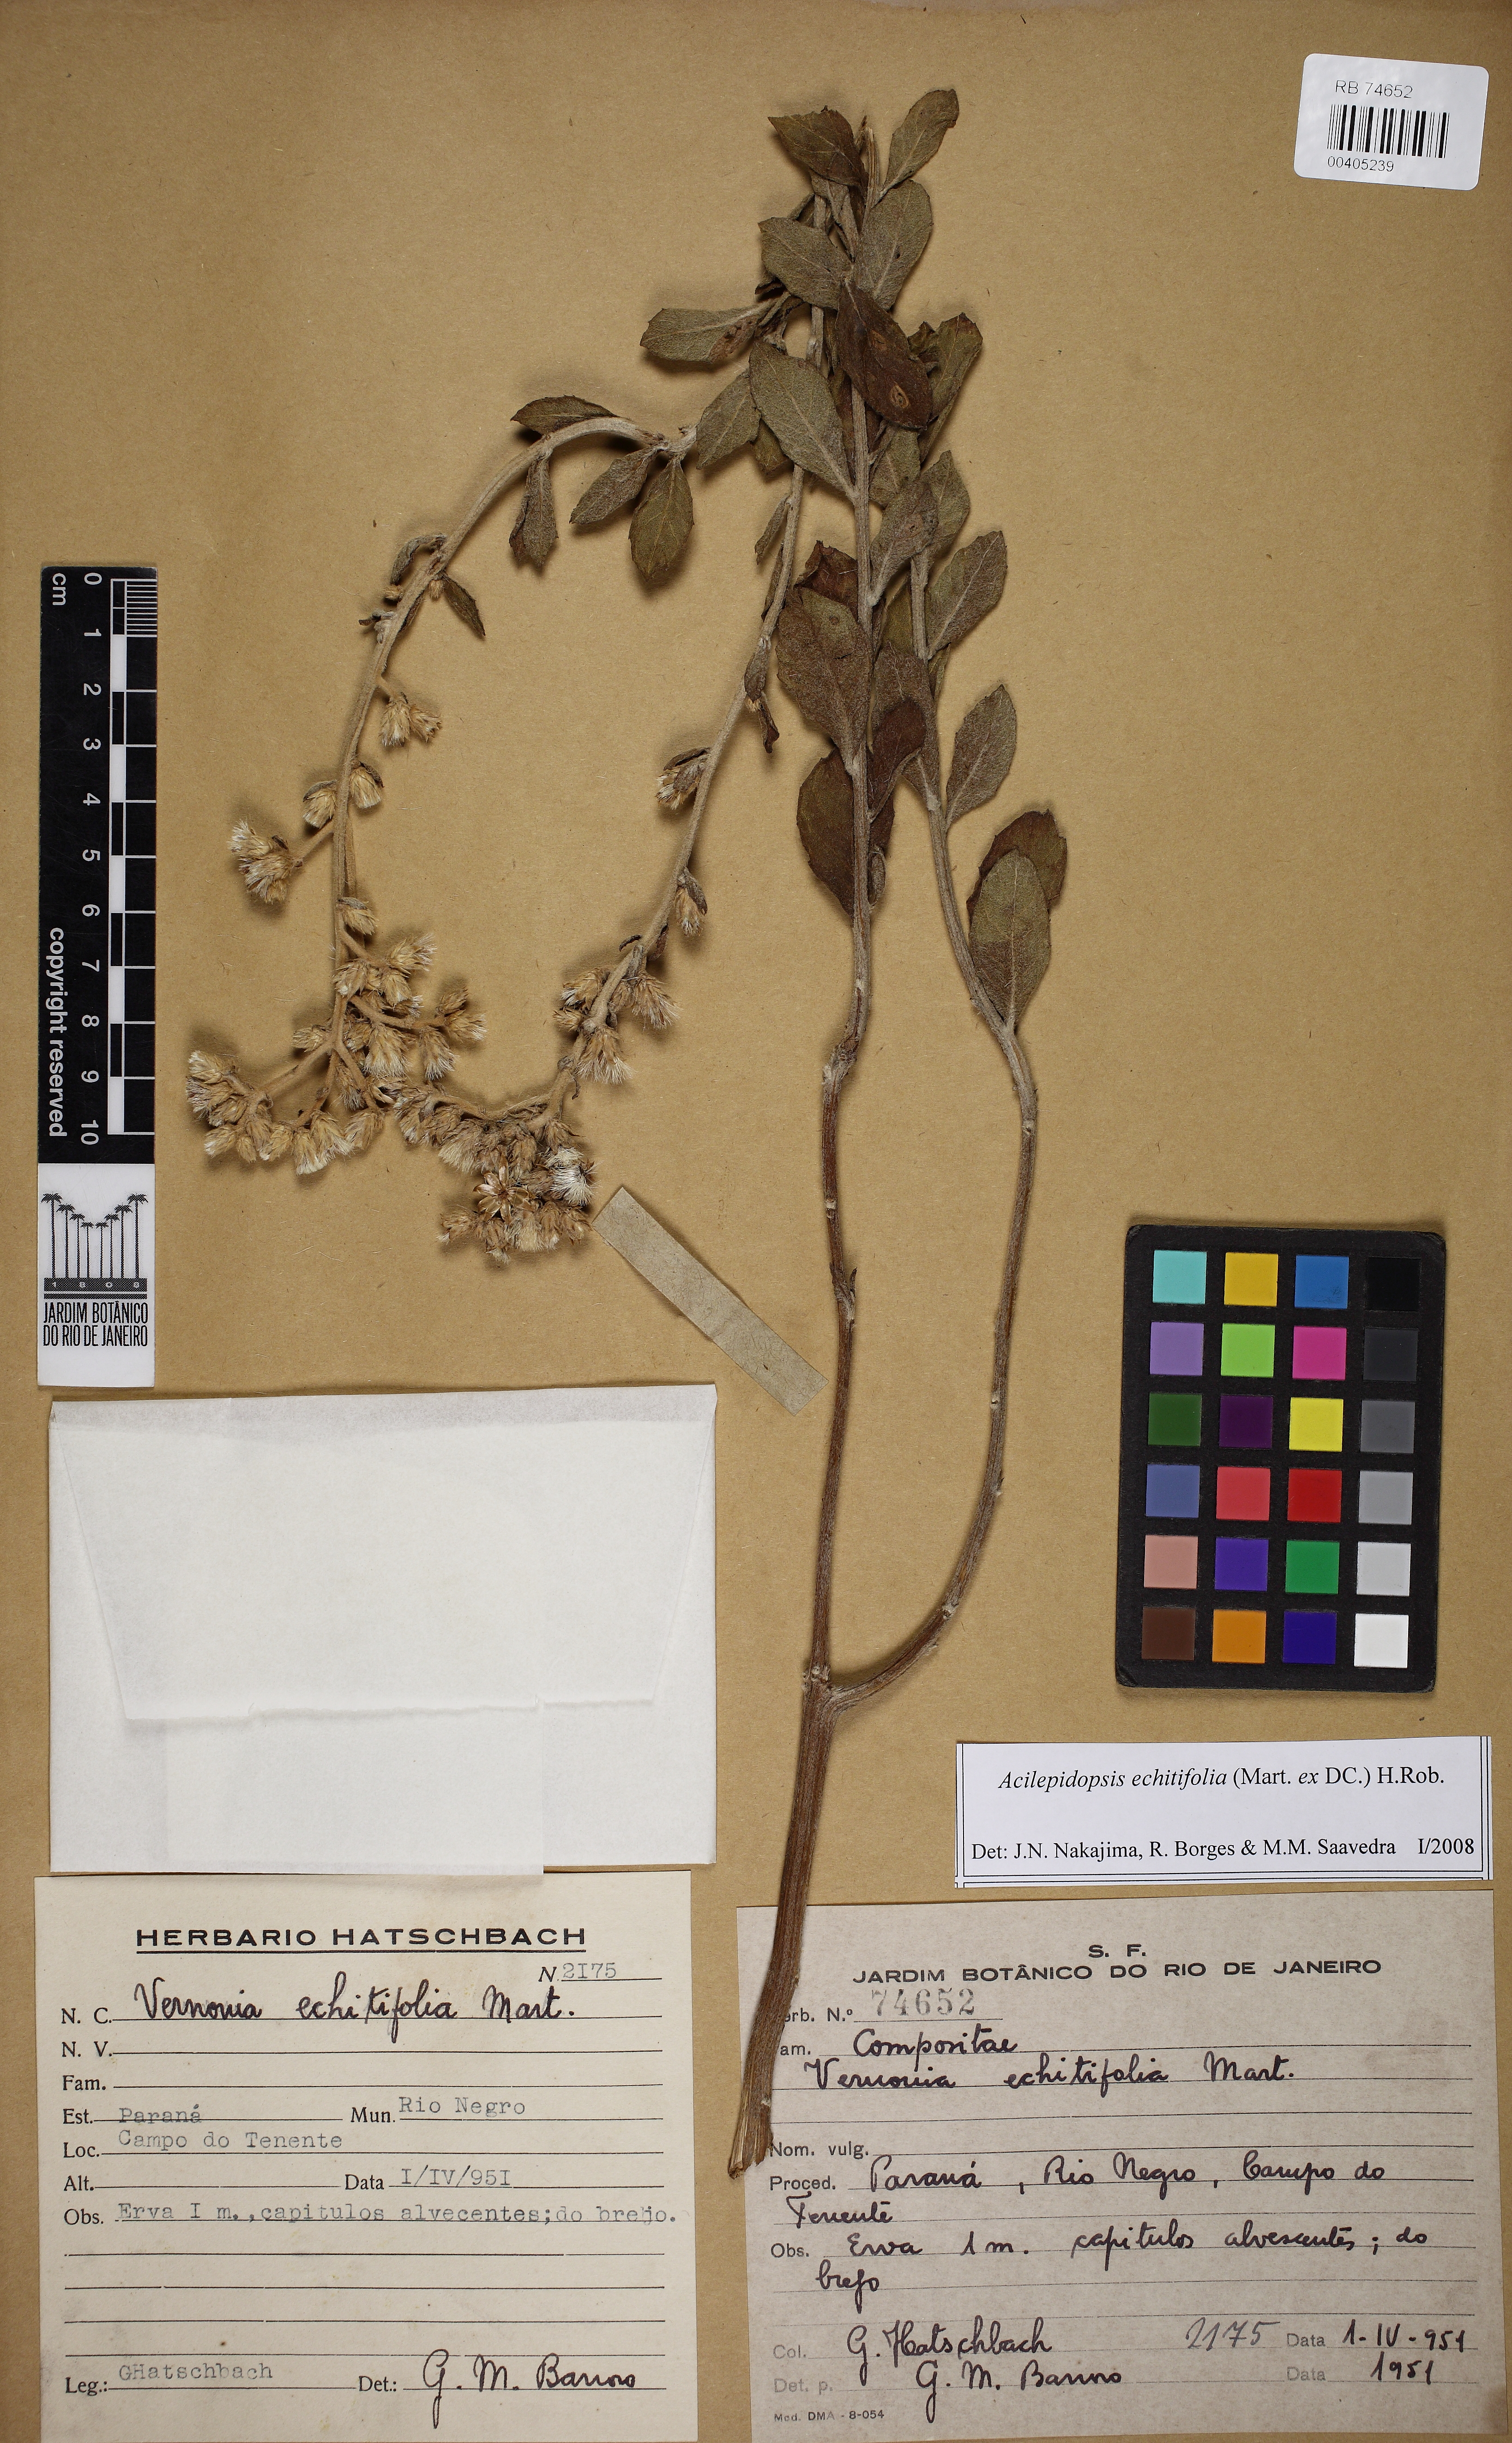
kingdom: Plantae
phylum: Tracheophyta
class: Magnoliopsida
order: Asterales
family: Asteraceae
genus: Acilepidopsis
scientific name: Acilepidopsis echitifolia
